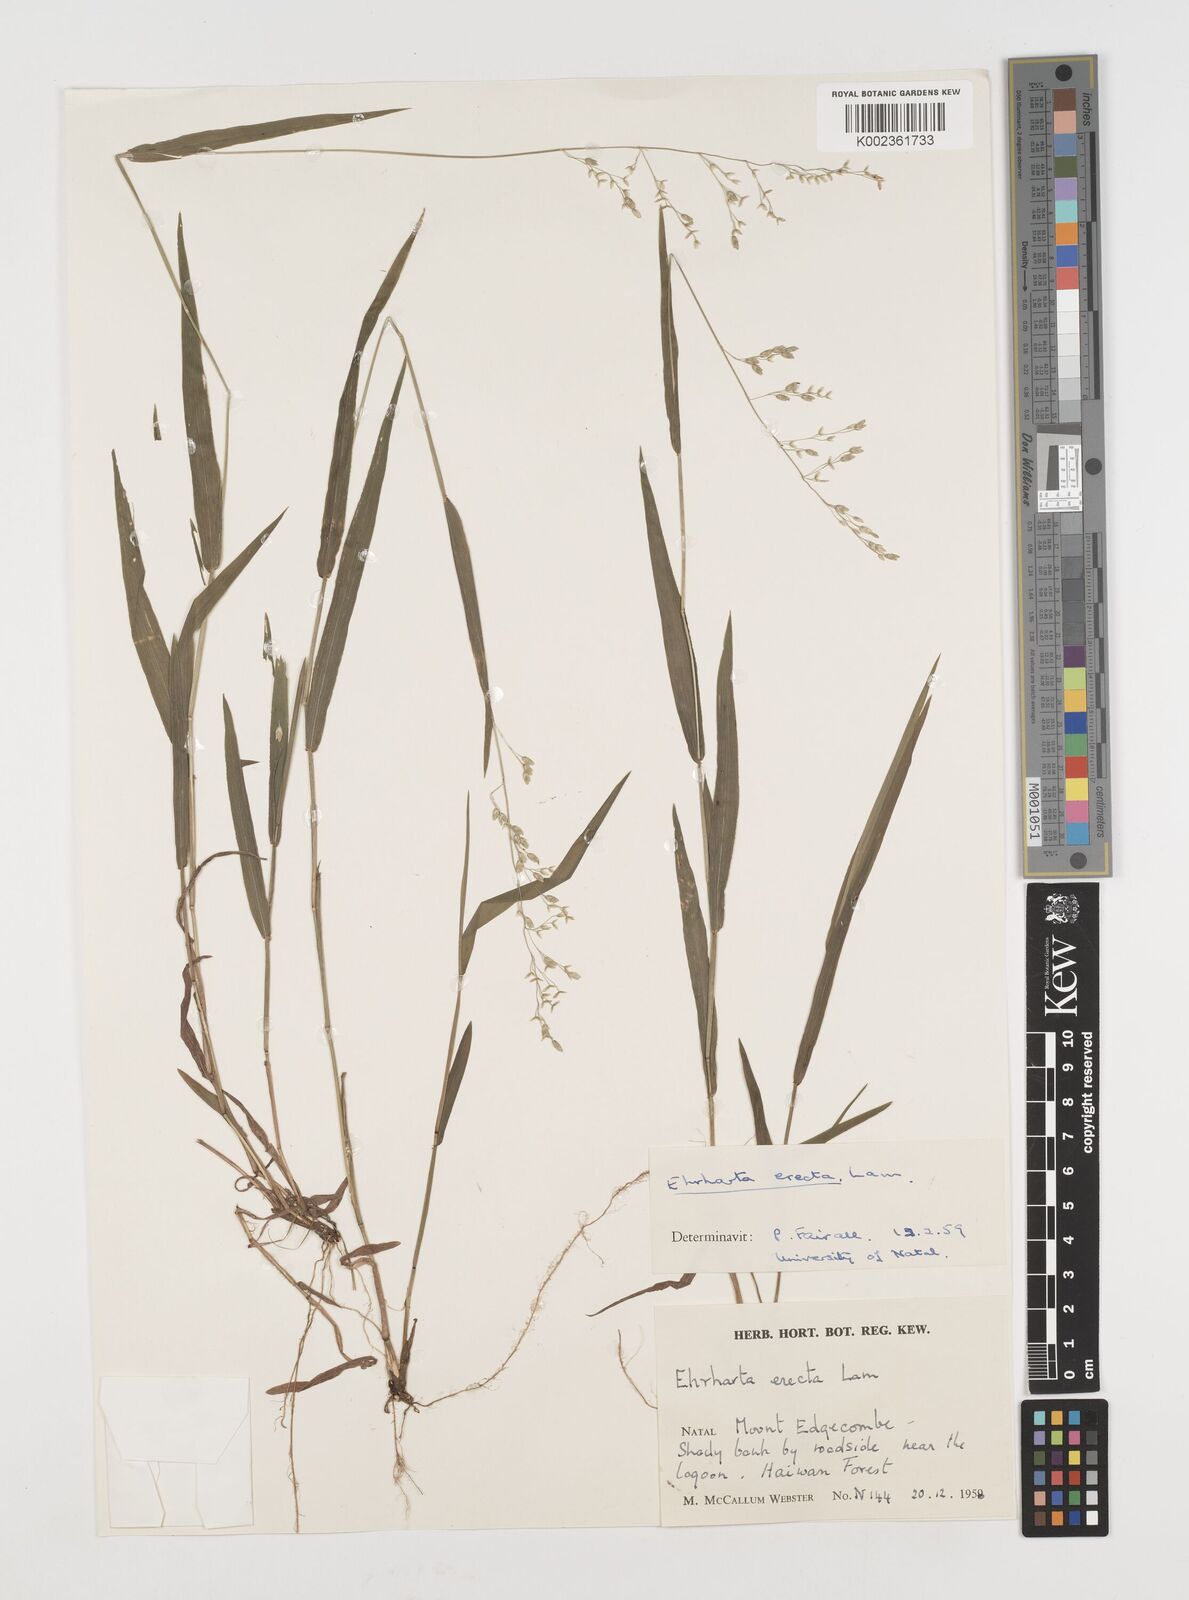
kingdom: Plantae
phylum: Tracheophyta
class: Liliopsida
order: Poales
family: Poaceae
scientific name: Poaceae
